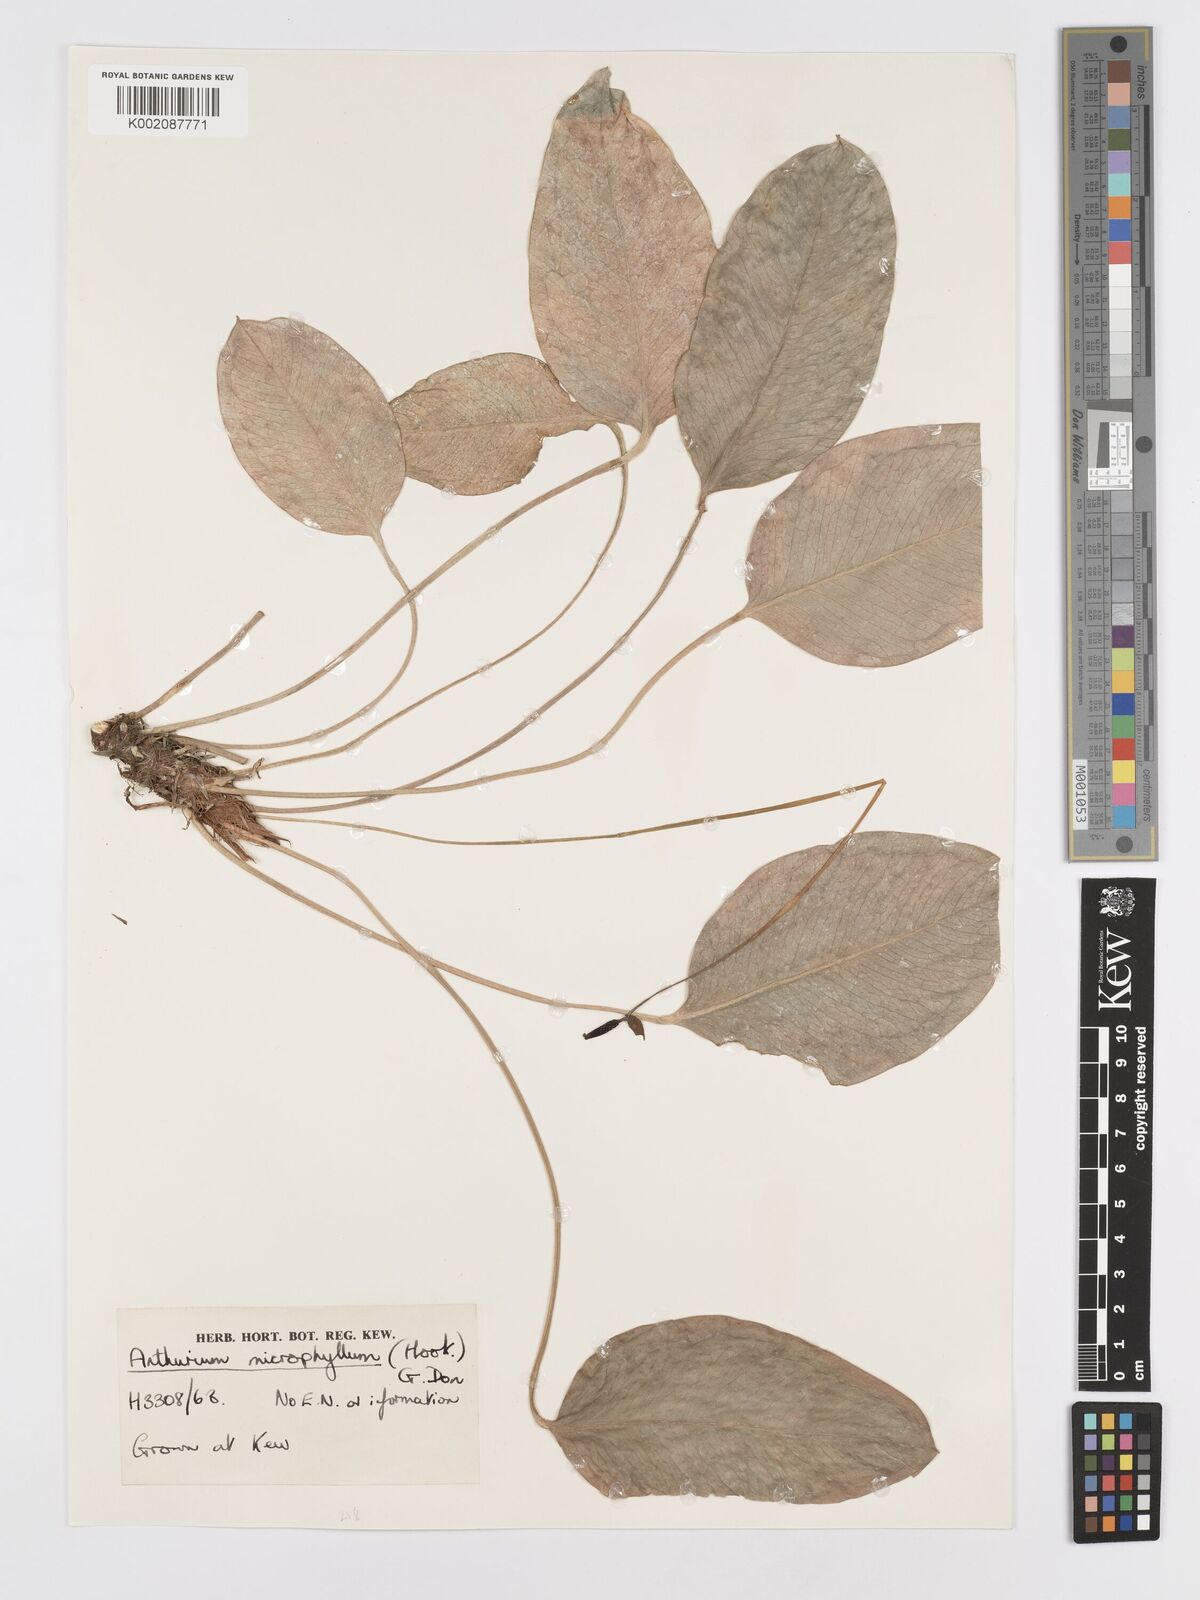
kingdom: Plantae
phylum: Tracheophyta
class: Liliopsida
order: Alismatales
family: Araceae
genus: Anthurium
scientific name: Anthurium microphyllum
